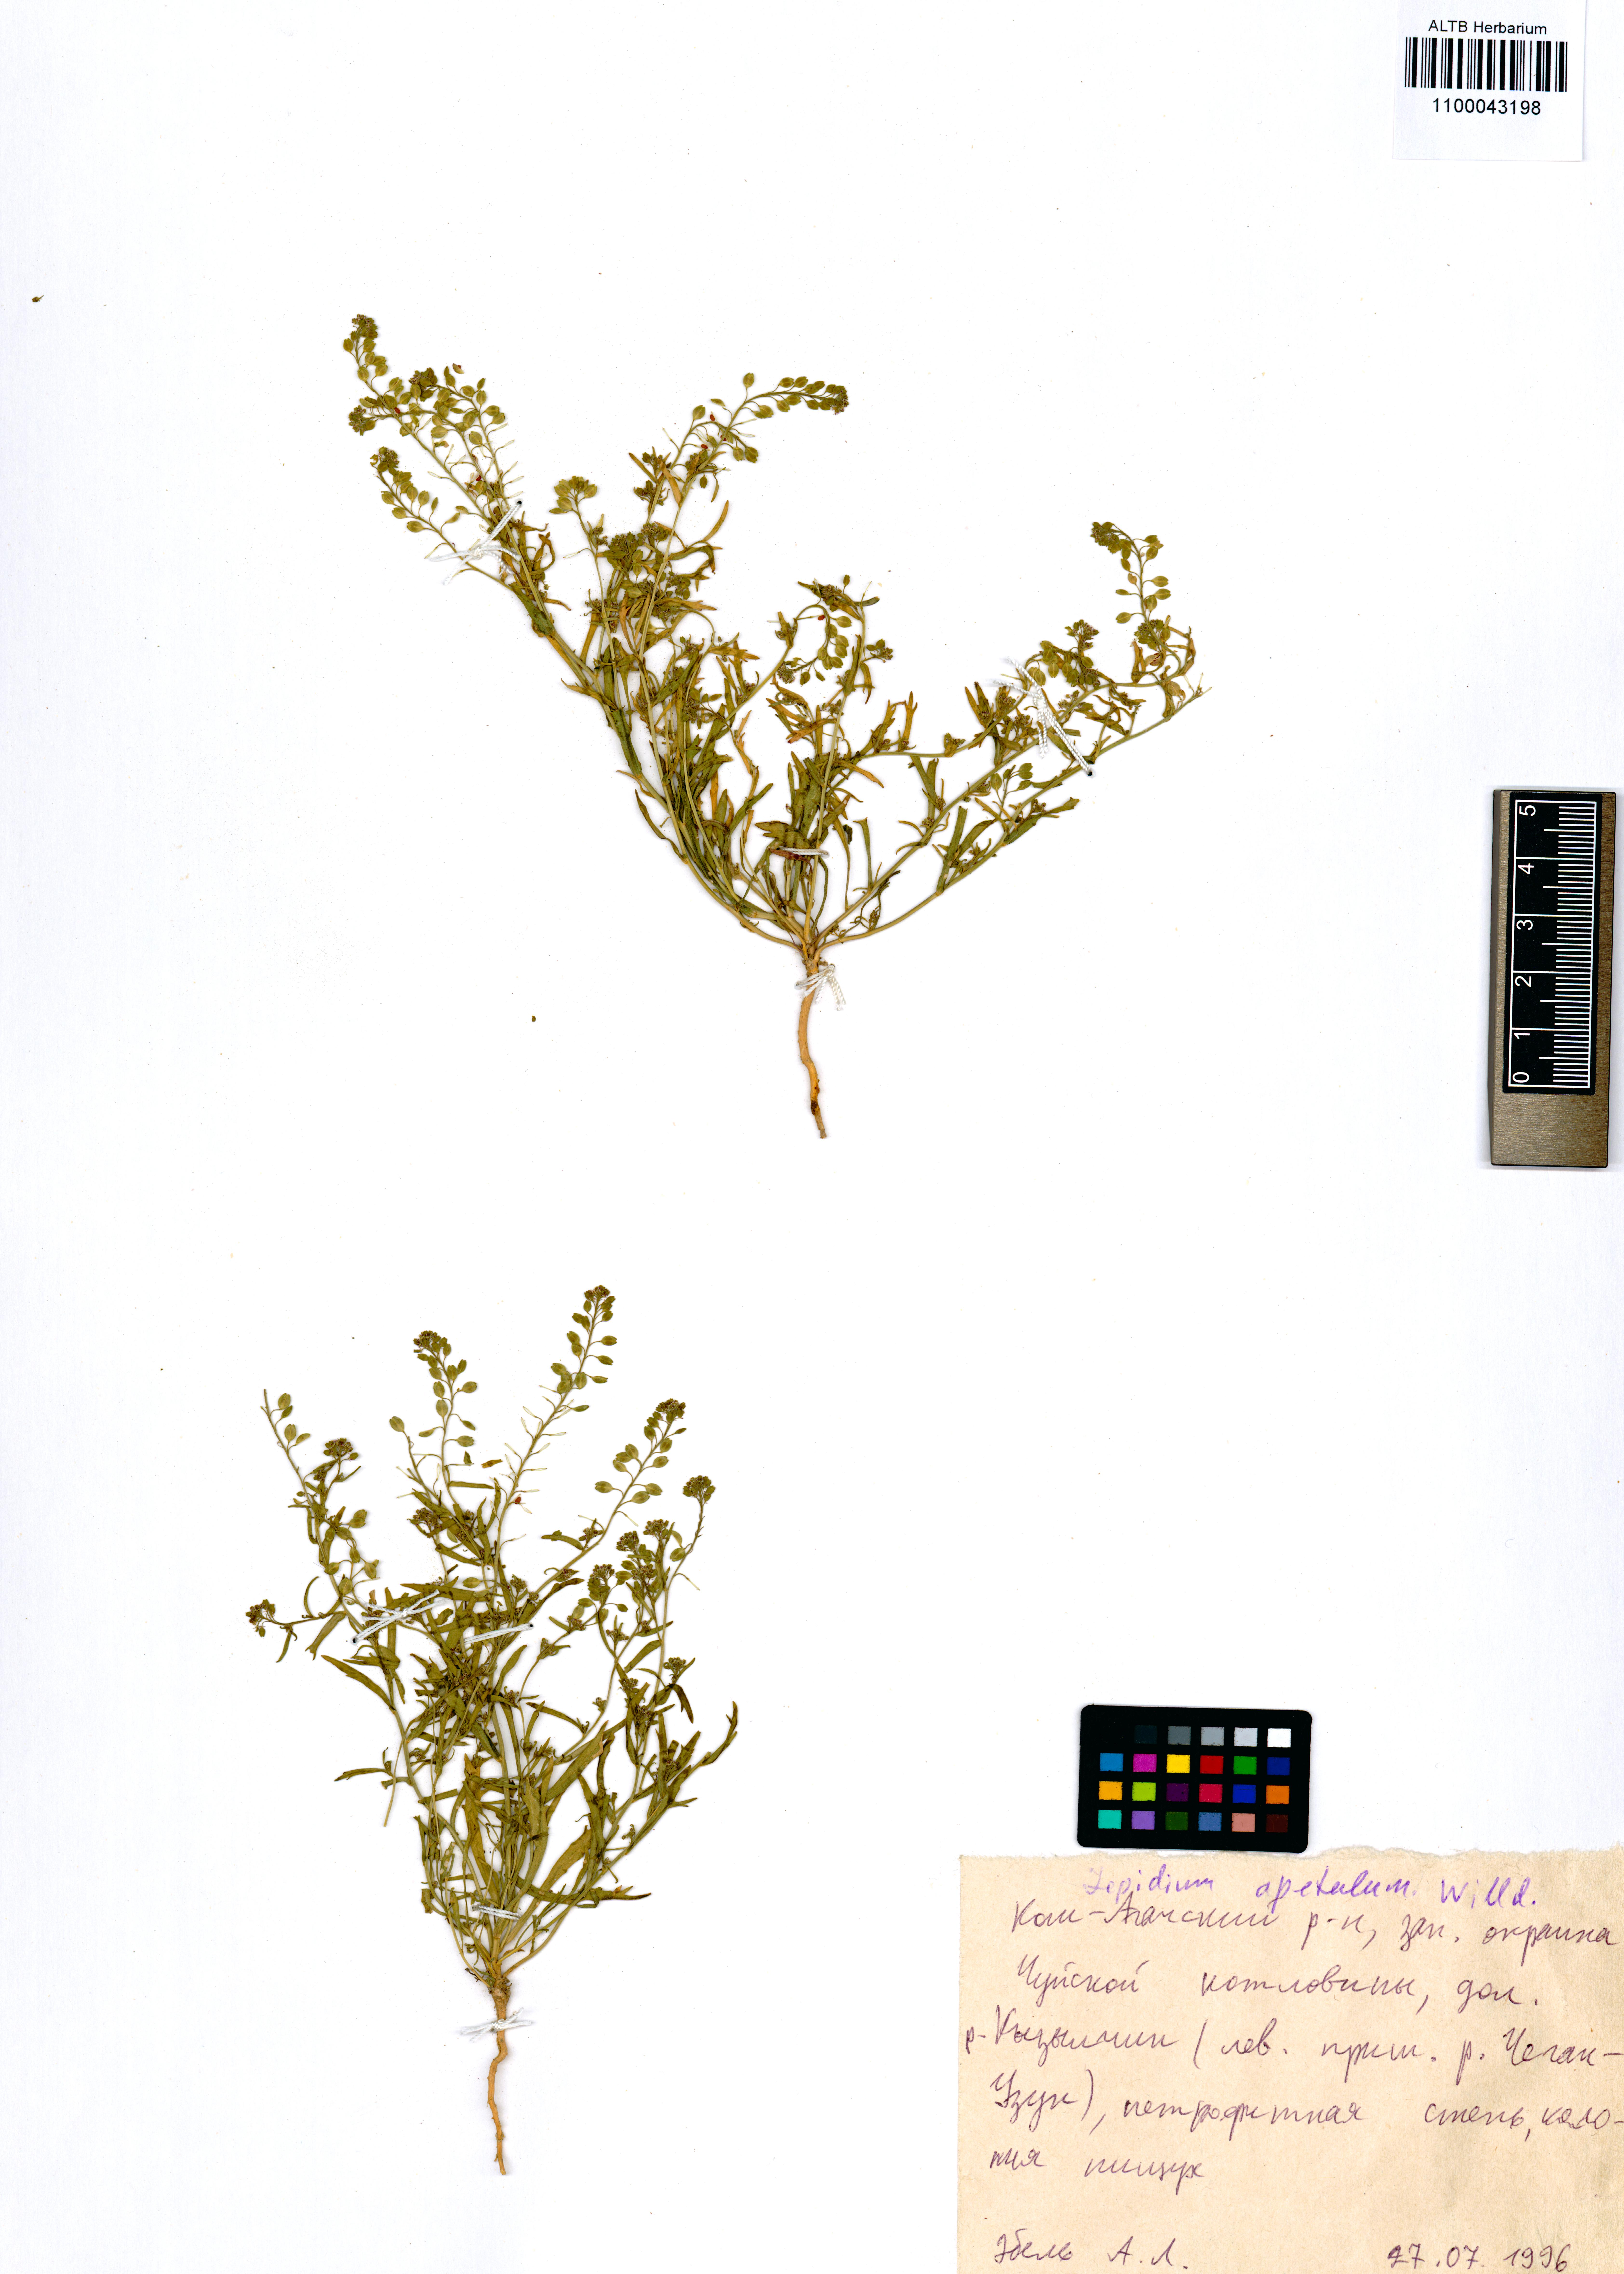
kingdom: Plantae
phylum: Tracheophyta
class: Magnoliopsida
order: Brassicales
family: Brassicaceae
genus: Lepidium
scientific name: Lepidium apetalum
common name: Pepperweed
